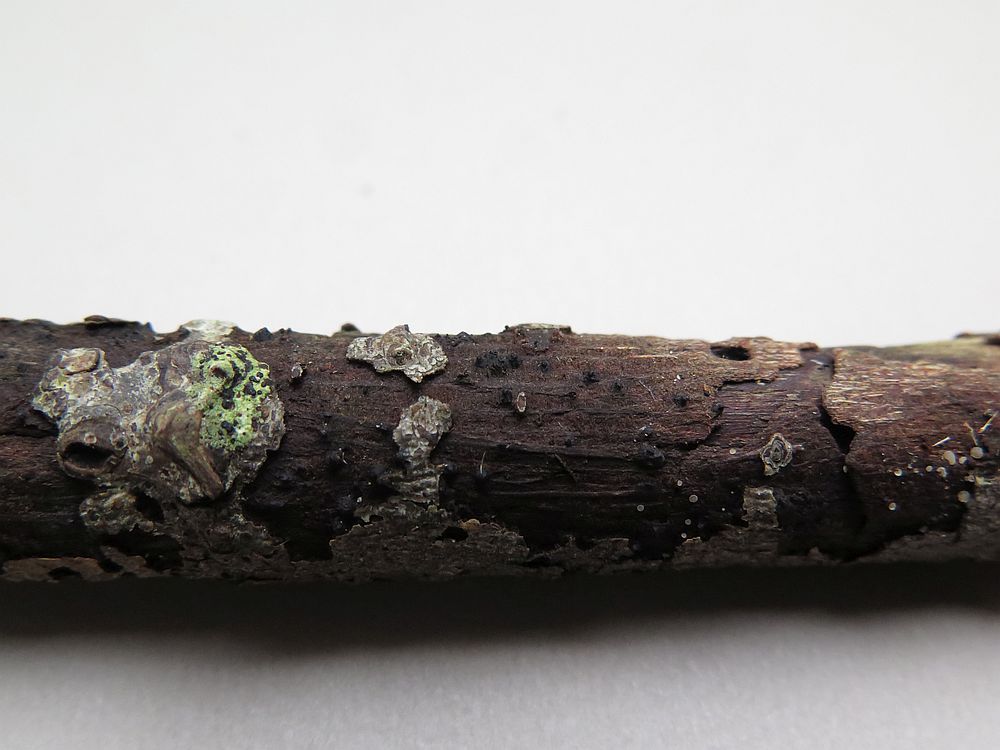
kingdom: Fungi
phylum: Ascomycota
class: Dothideomycetes
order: Pleosporales
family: Thyridariaceae
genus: Thyridaria
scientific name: Thyridaria macrostomoides
